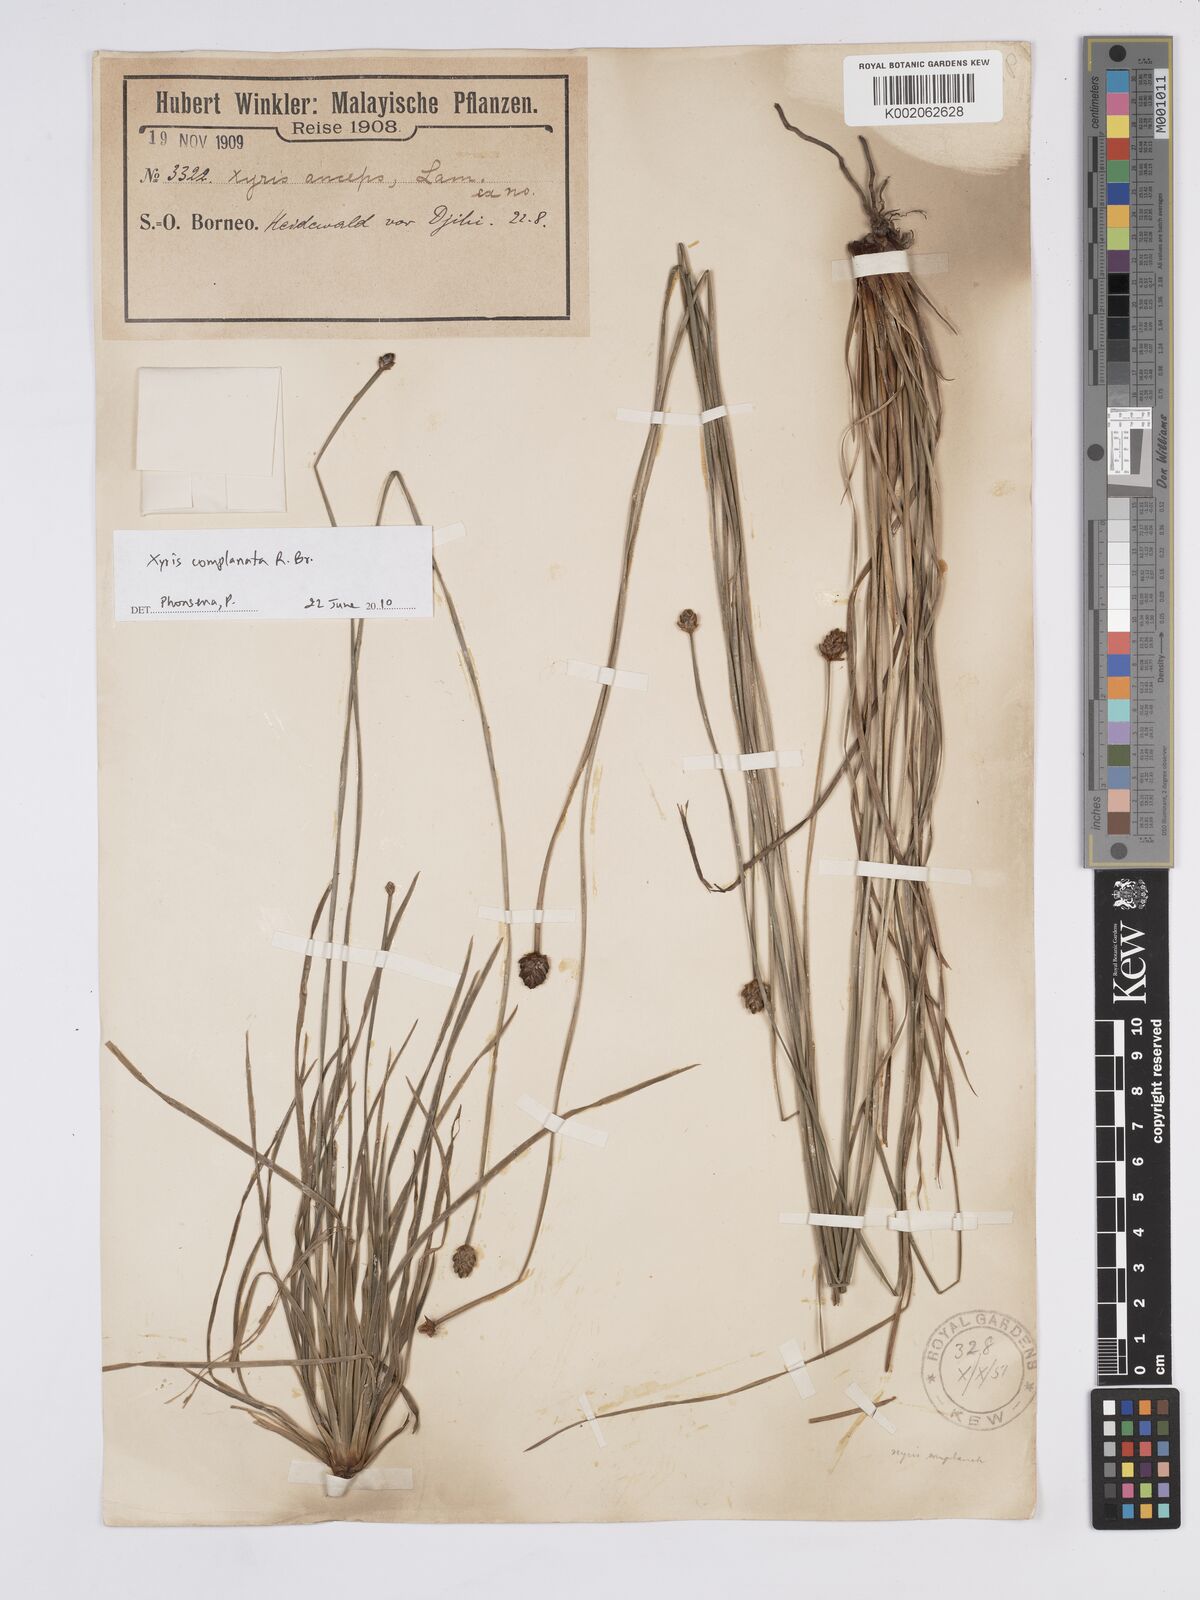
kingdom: Plantae
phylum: Tracheophyta
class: Liliopsida
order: Poales
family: Xyridaceae
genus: Xyris
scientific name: Xyris complanata
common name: Hawai'i yelloweyed grass
